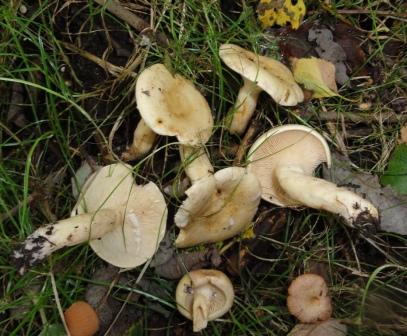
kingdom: Fungi
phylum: Basidiomycota
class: Agaricomycetes
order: Russulales
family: Russulaceae
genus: Lactarius
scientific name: Lactarius aspideus
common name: pile-mælkehat
